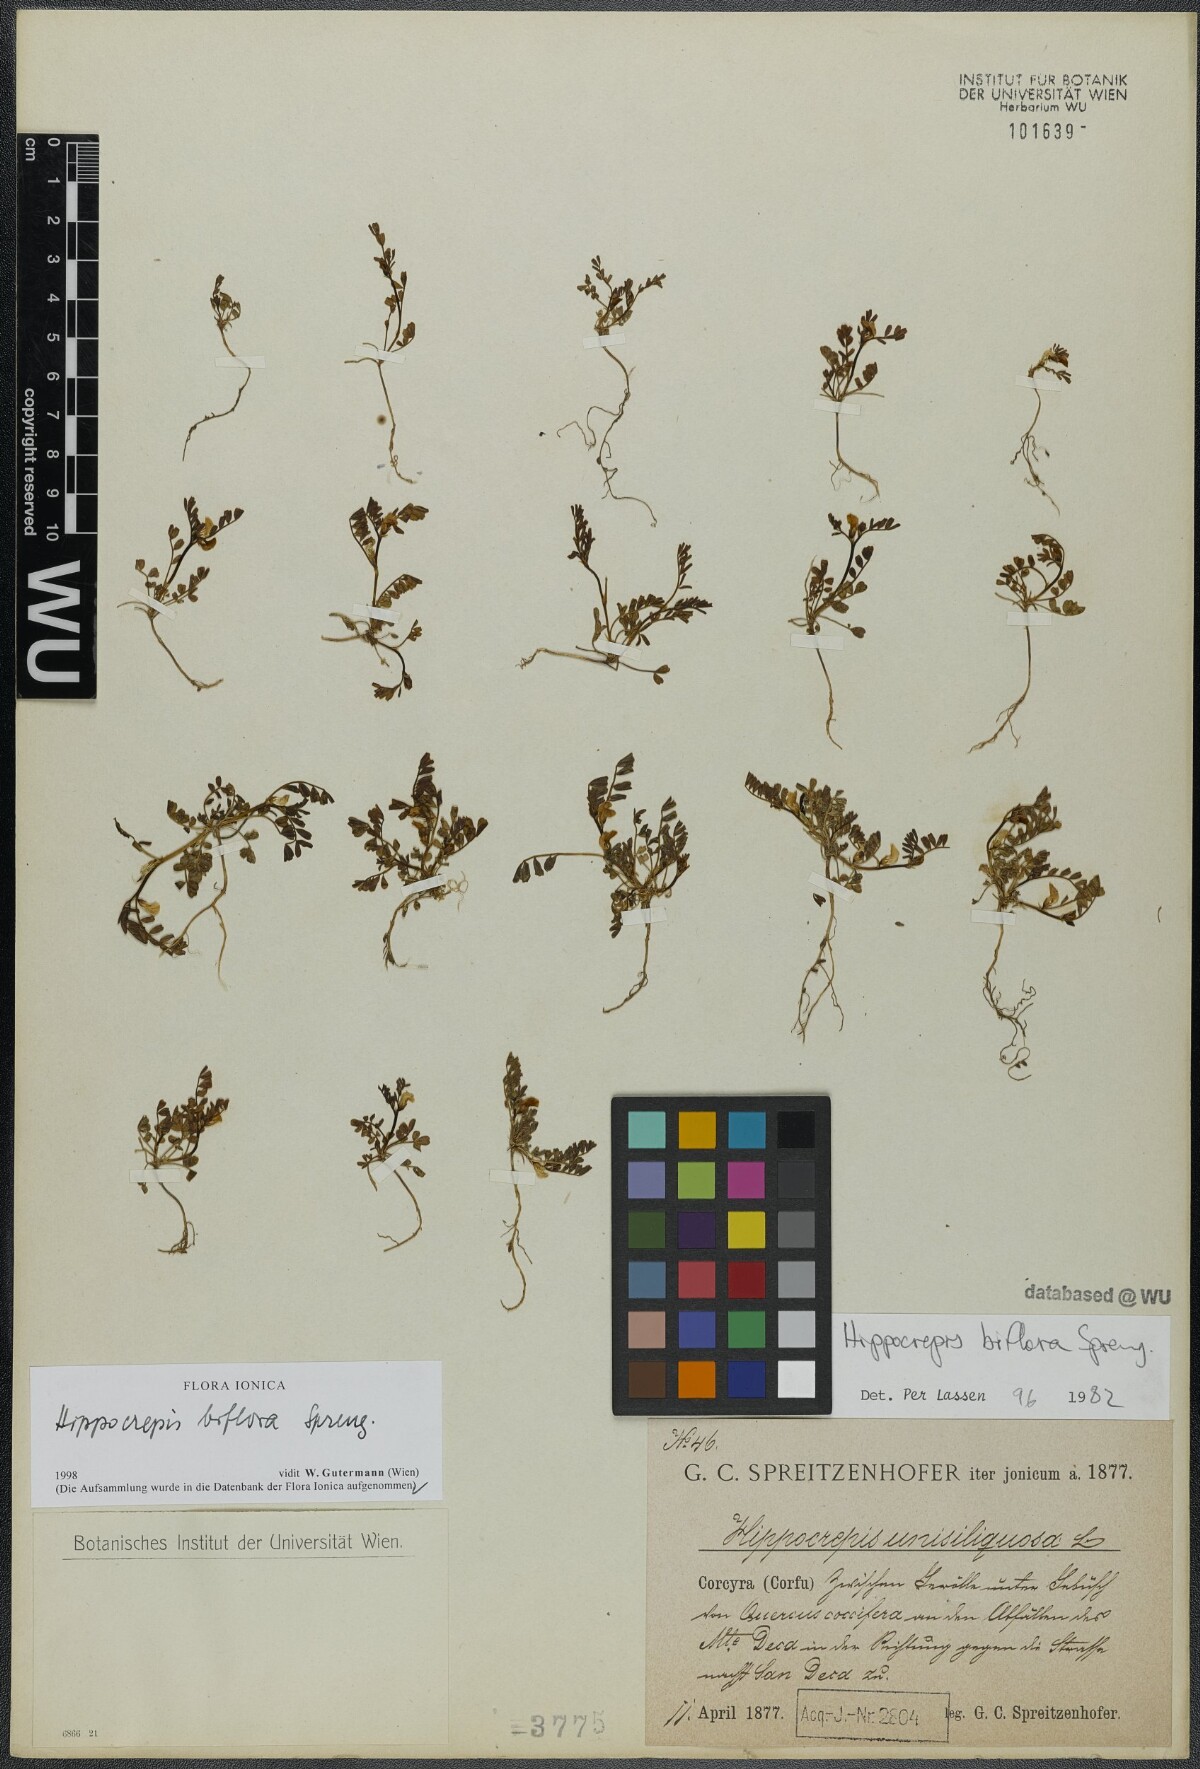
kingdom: Plantae
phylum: Tracheophyta
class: Magnoliopsida
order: Fabales
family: Fabaceae
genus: Hippocrepis
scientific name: Hippocrepis biflora
